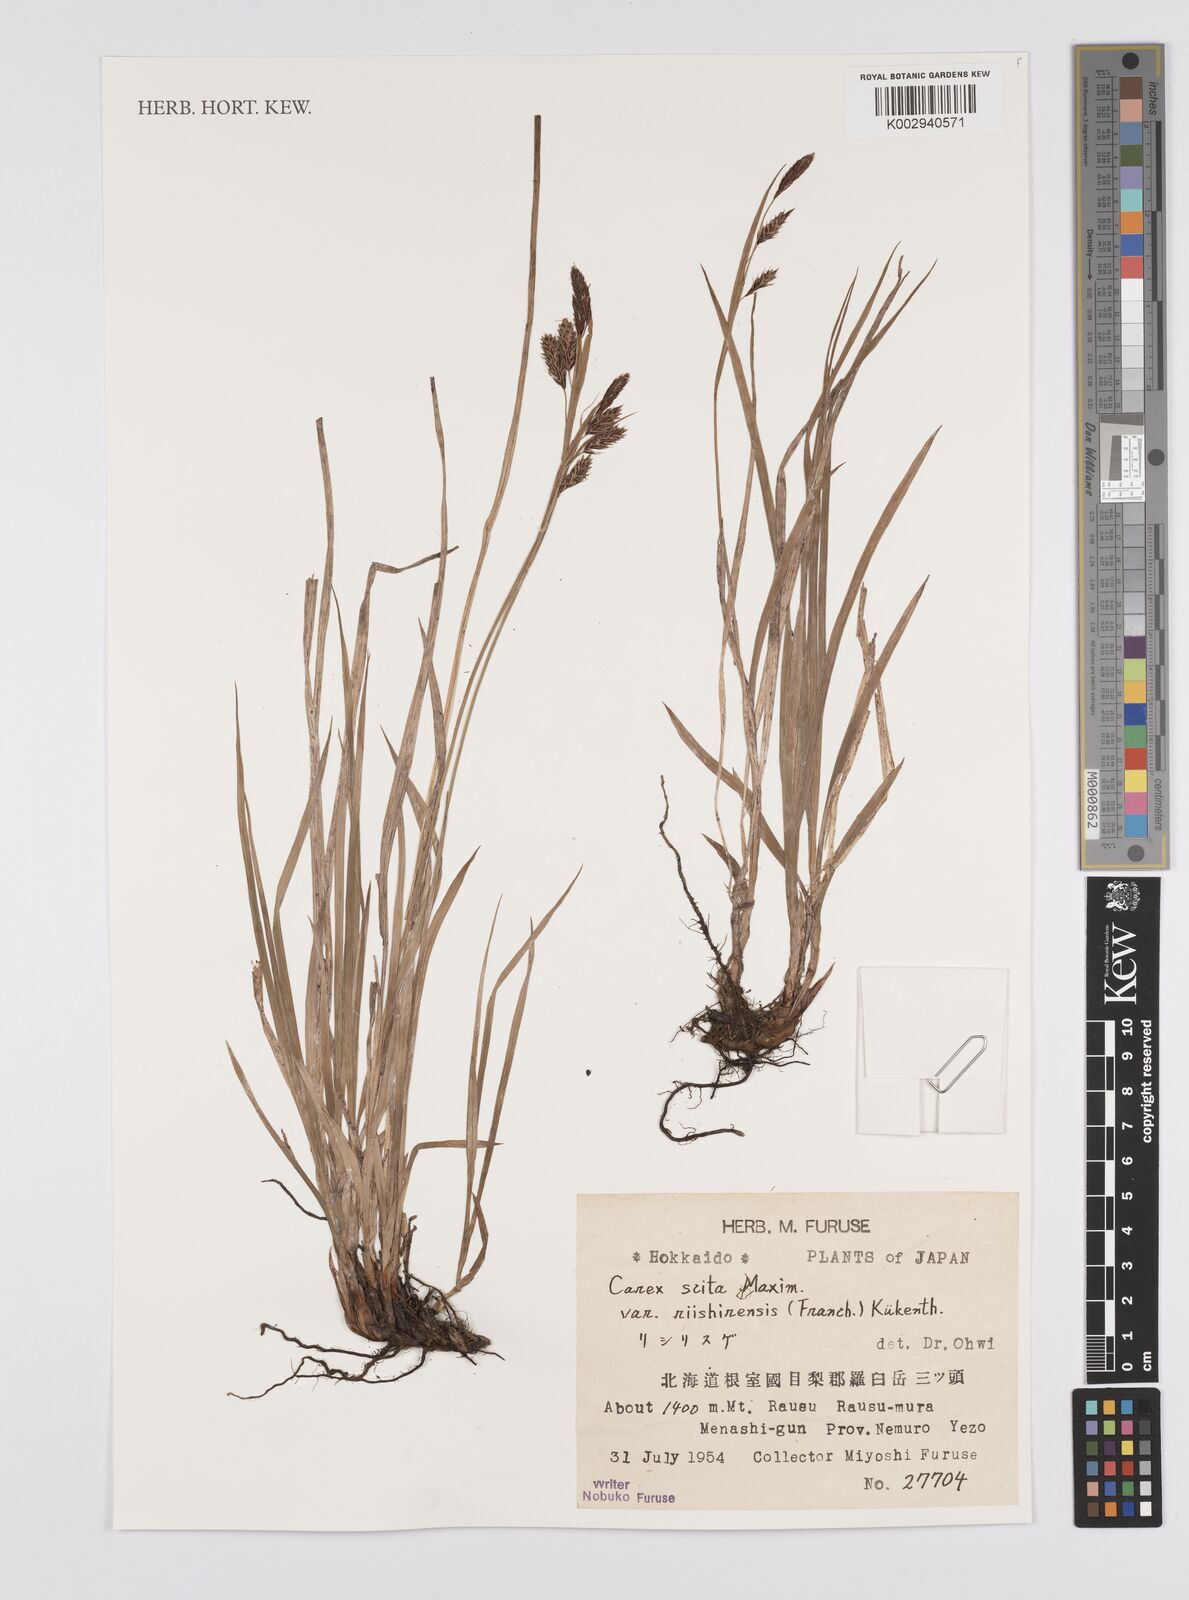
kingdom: Plantae
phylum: Tracheophyta
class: Liliopsida
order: Poales
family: Cyperaceae
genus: Carex
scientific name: Carex scita
